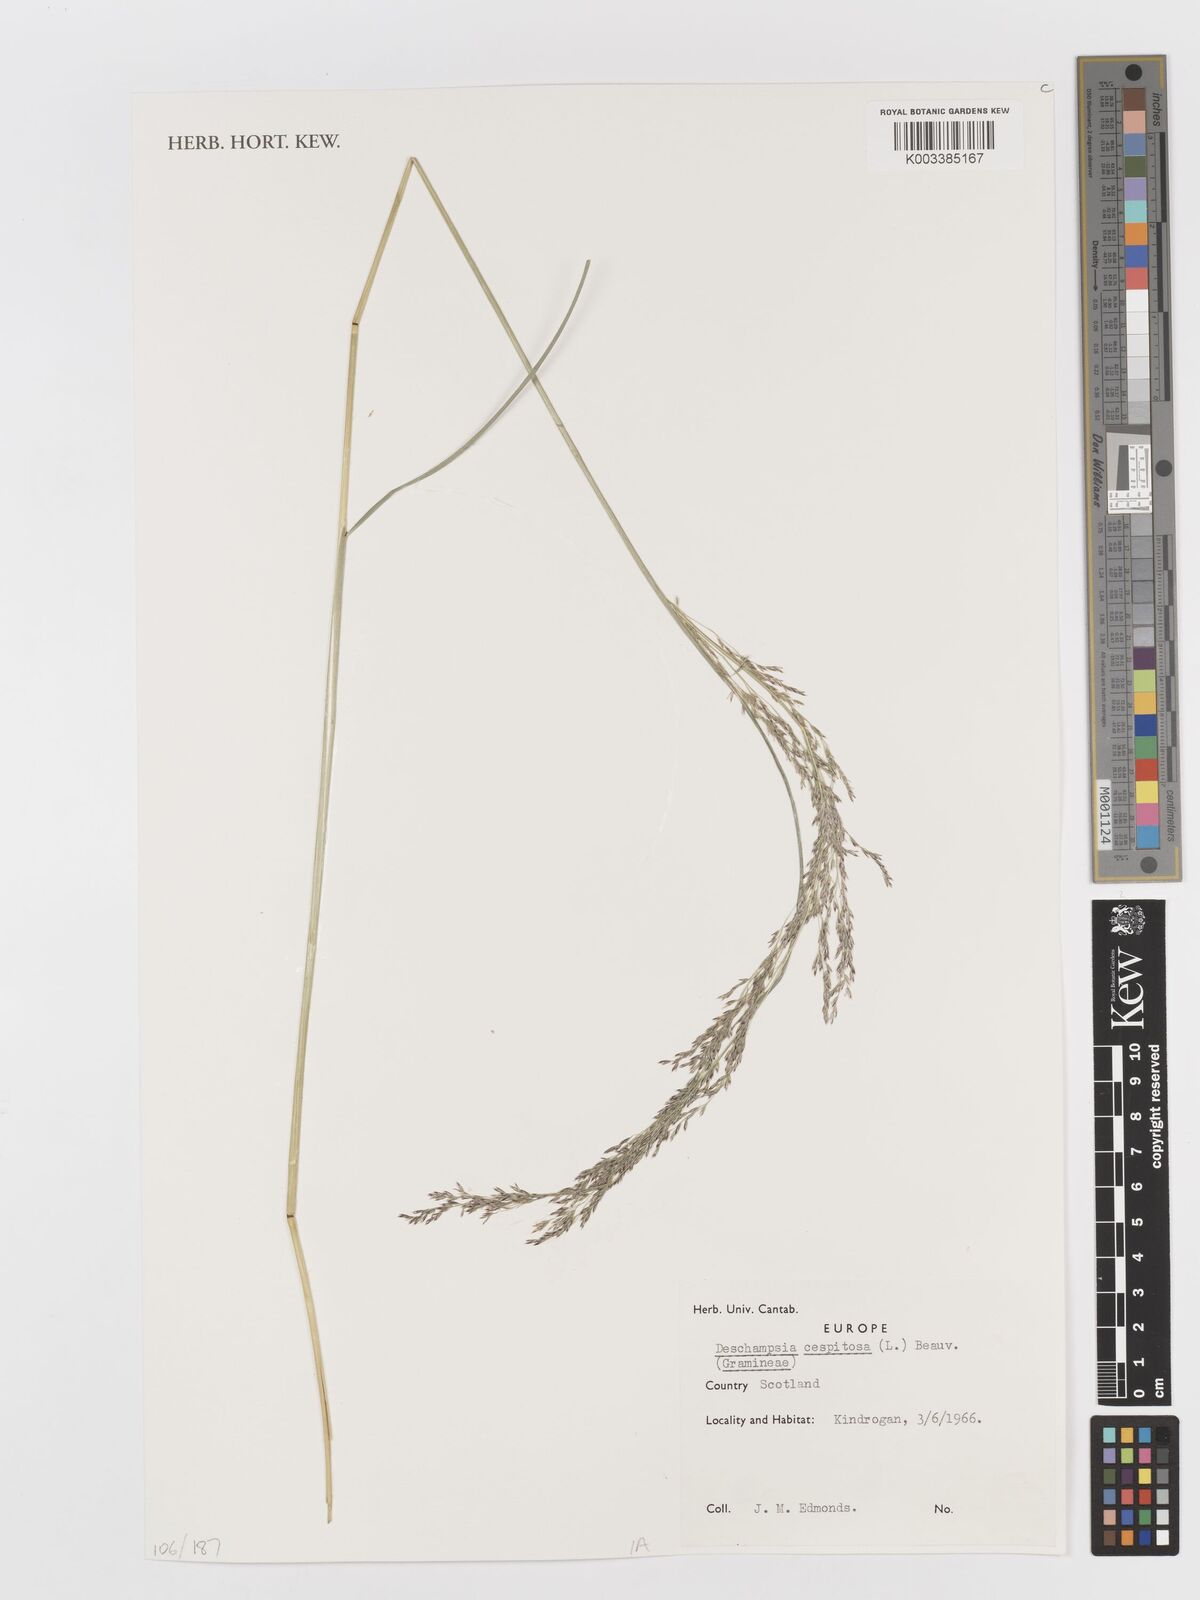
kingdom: Plantae
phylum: Tracheophyta
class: Liliopsida
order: Poales
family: Poaceae
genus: Deschampsia
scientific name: Deschampsia cespitosa
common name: Tufted hair-grass
